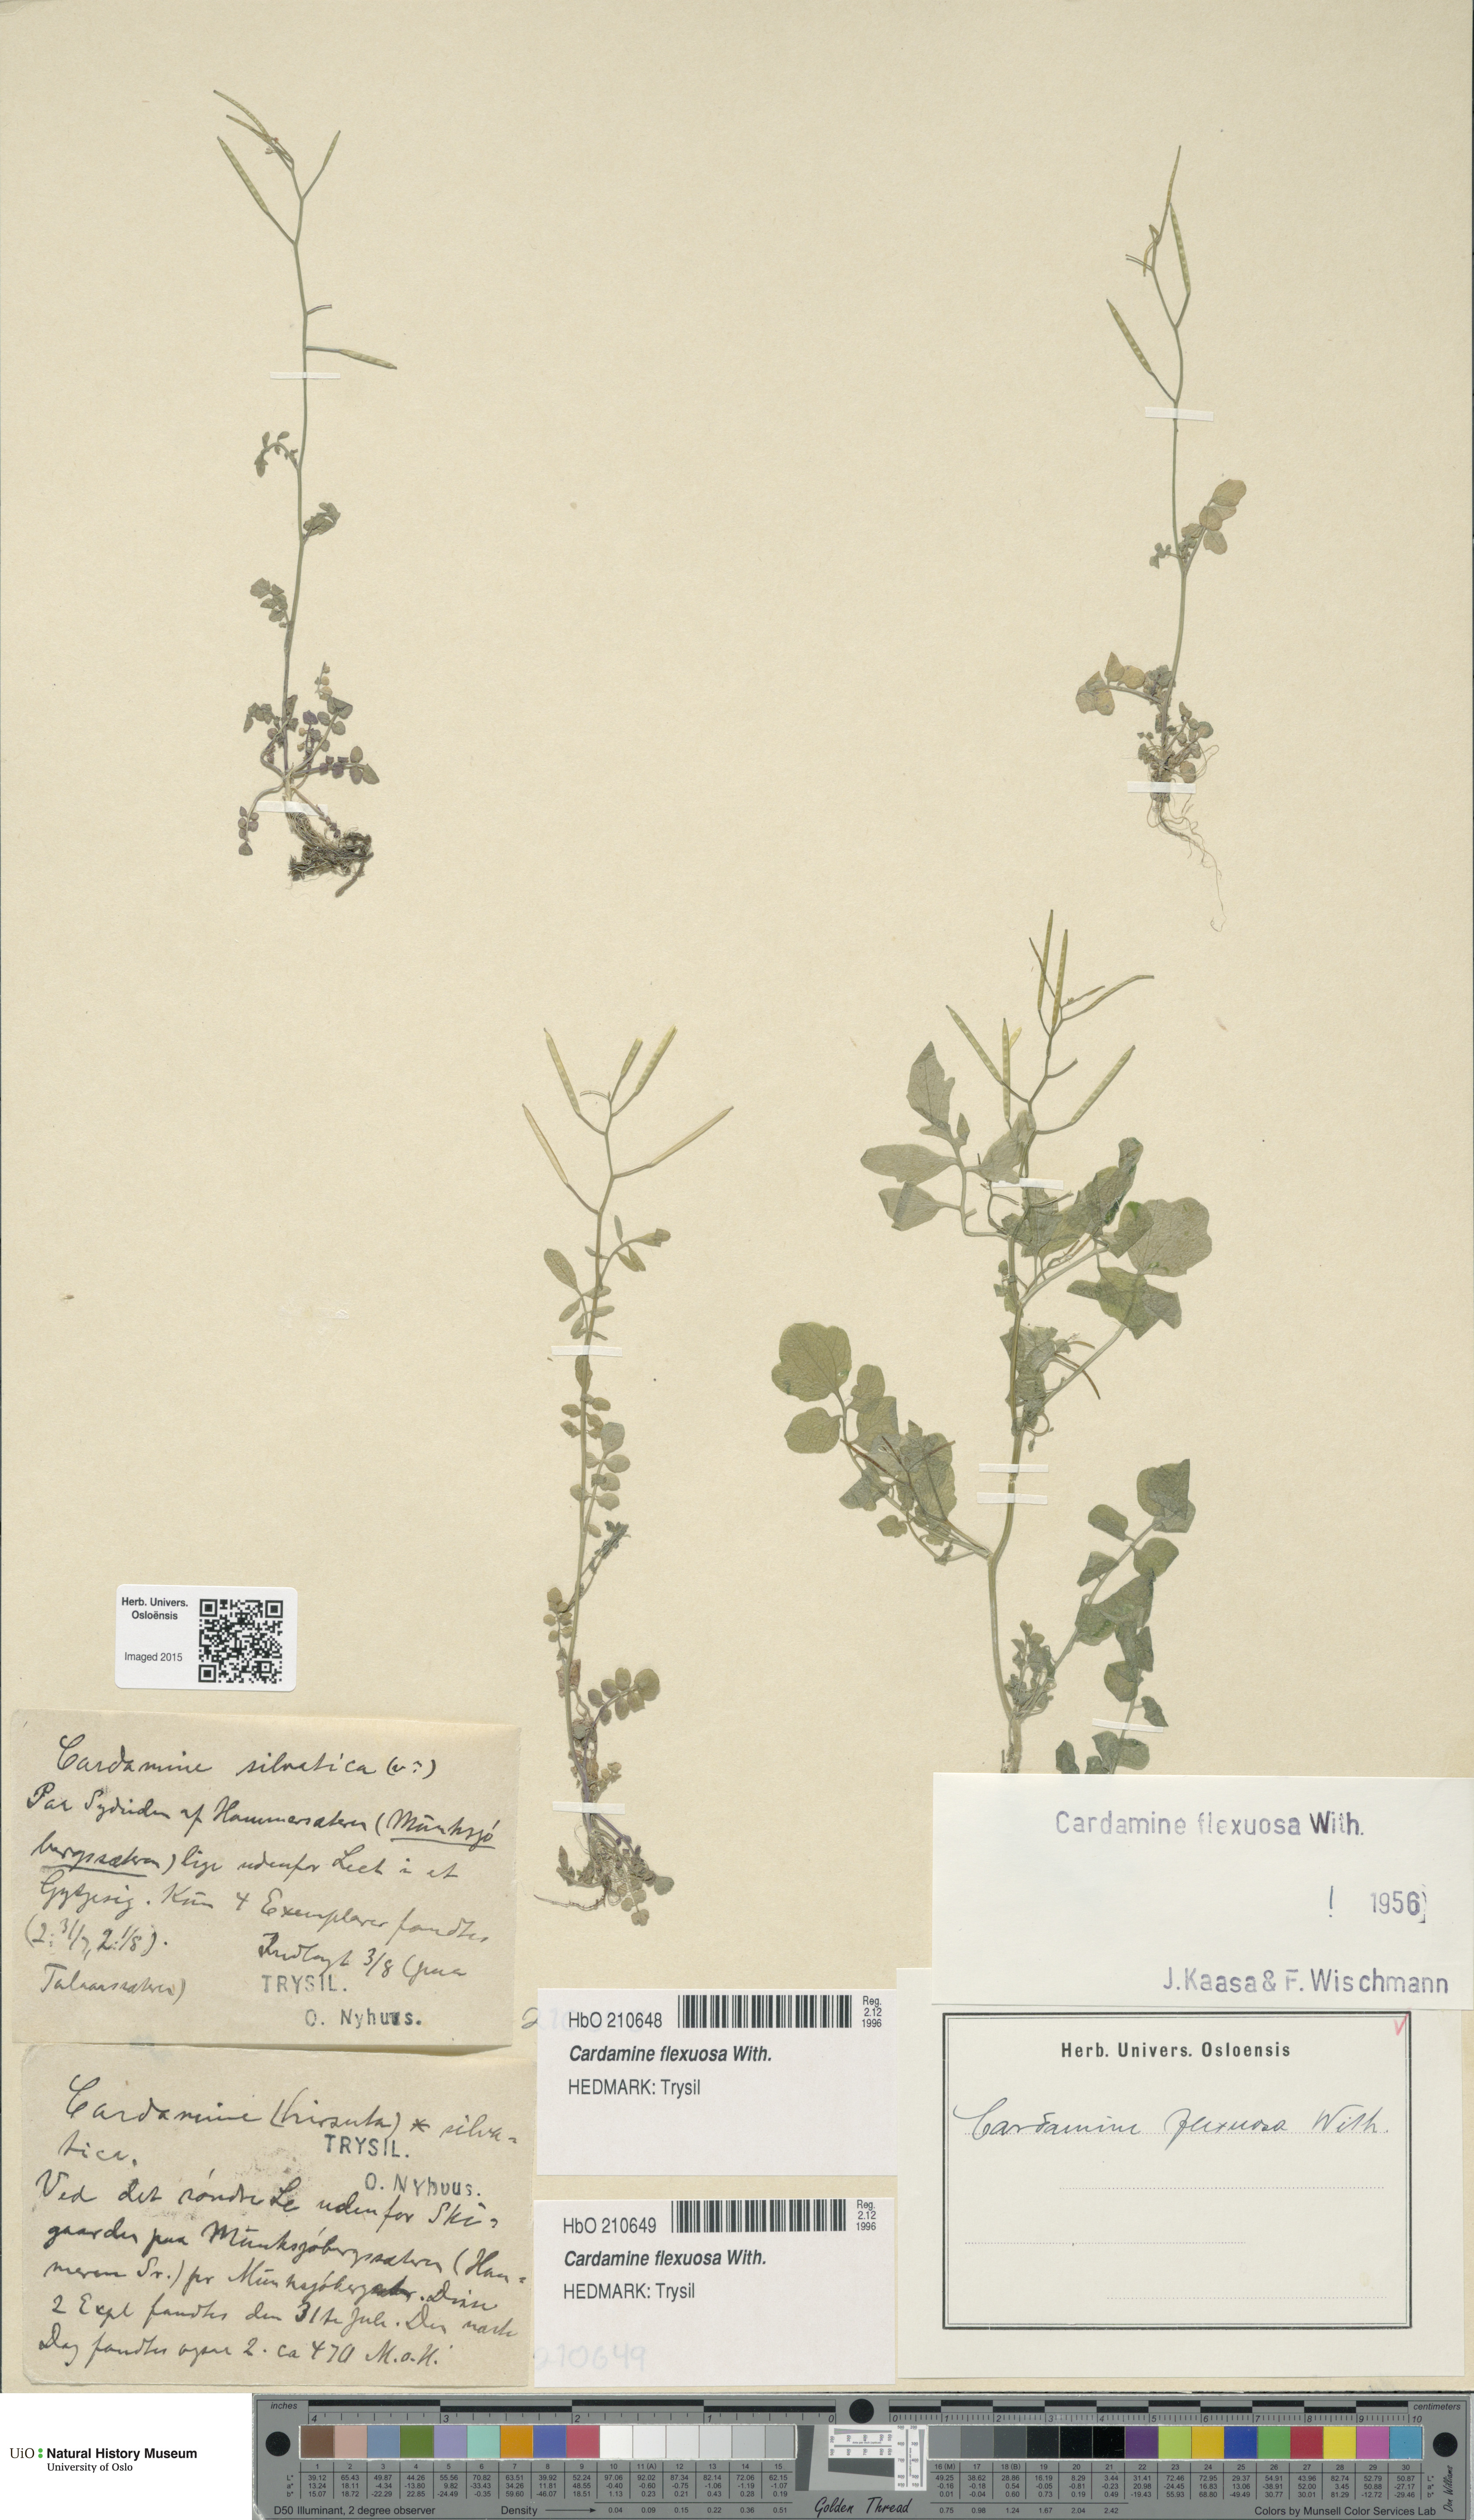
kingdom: Plantae
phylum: Tracheophyta
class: Magnoliopsida
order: Brassicales
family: Brassicaceae
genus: Cardamine
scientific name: Cardamine flexuosa
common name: Woodland bittercress
